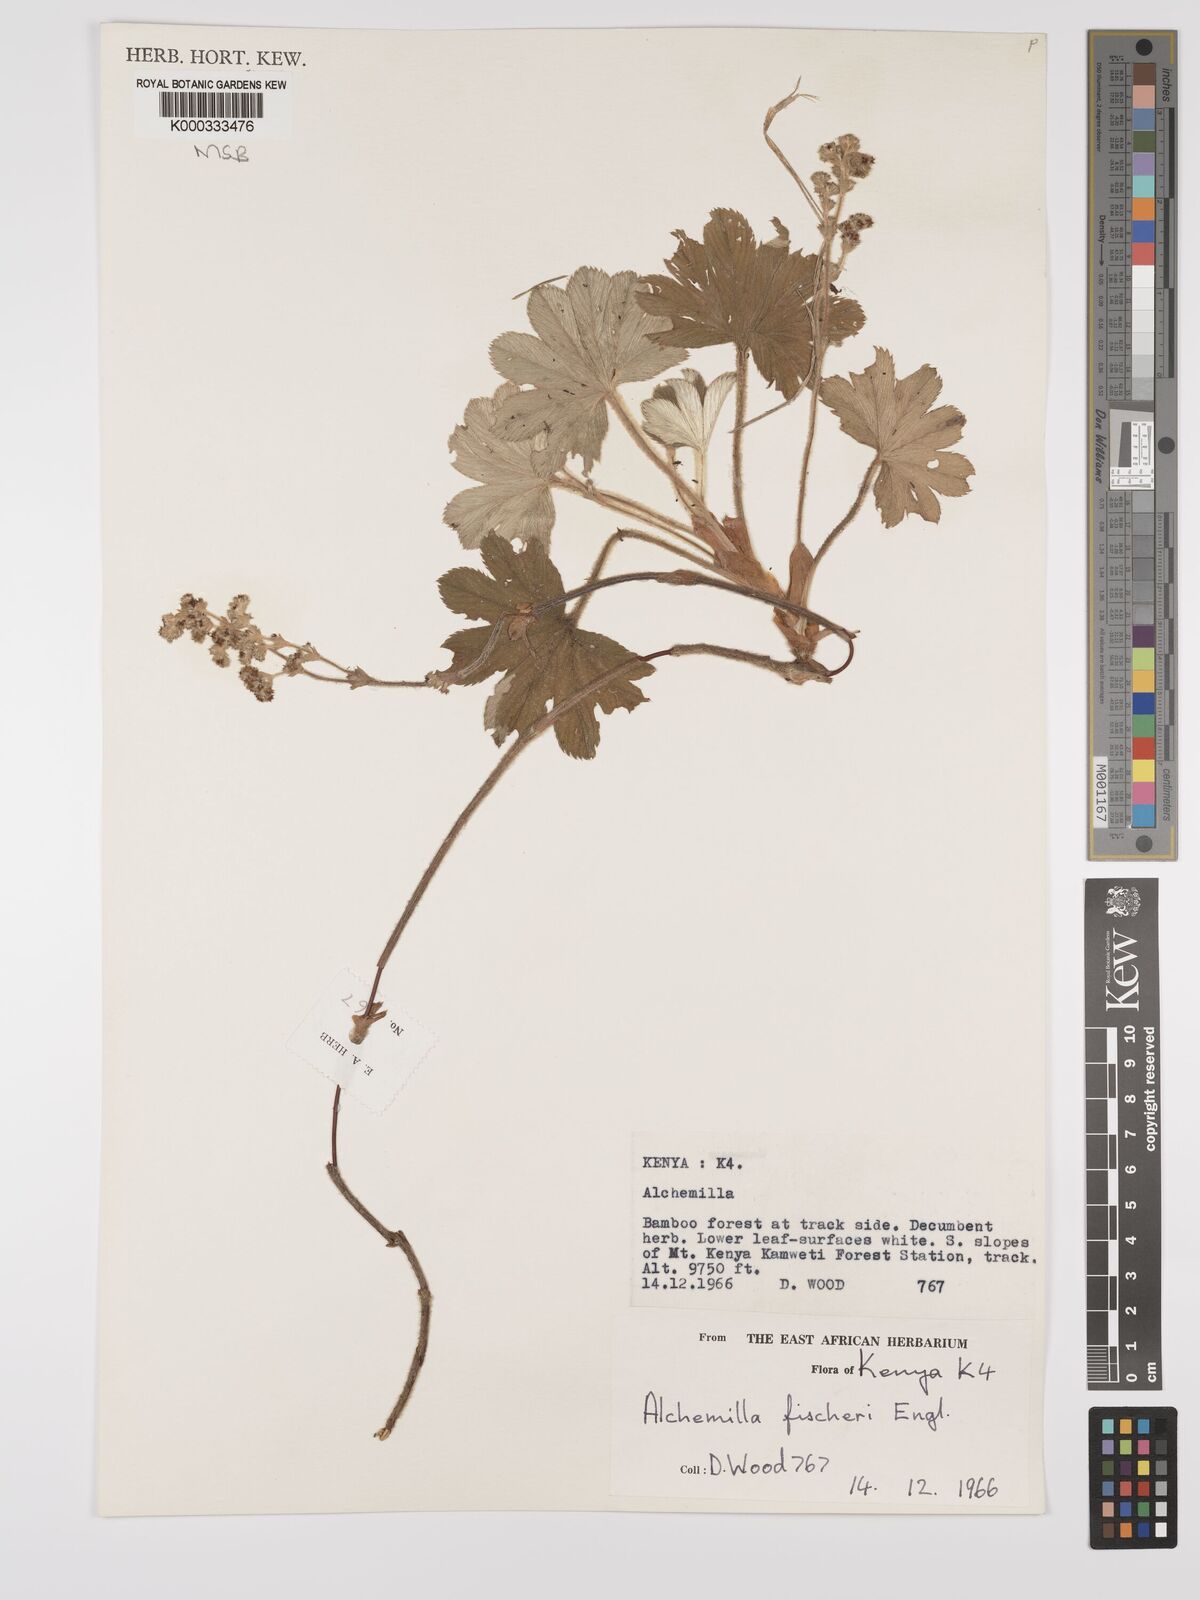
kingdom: Plantae
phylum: Tracheophyta
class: Magnoliopsida
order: Rosales
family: Rosaceae
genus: Alchemilla
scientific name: Alchemilla fischeri
